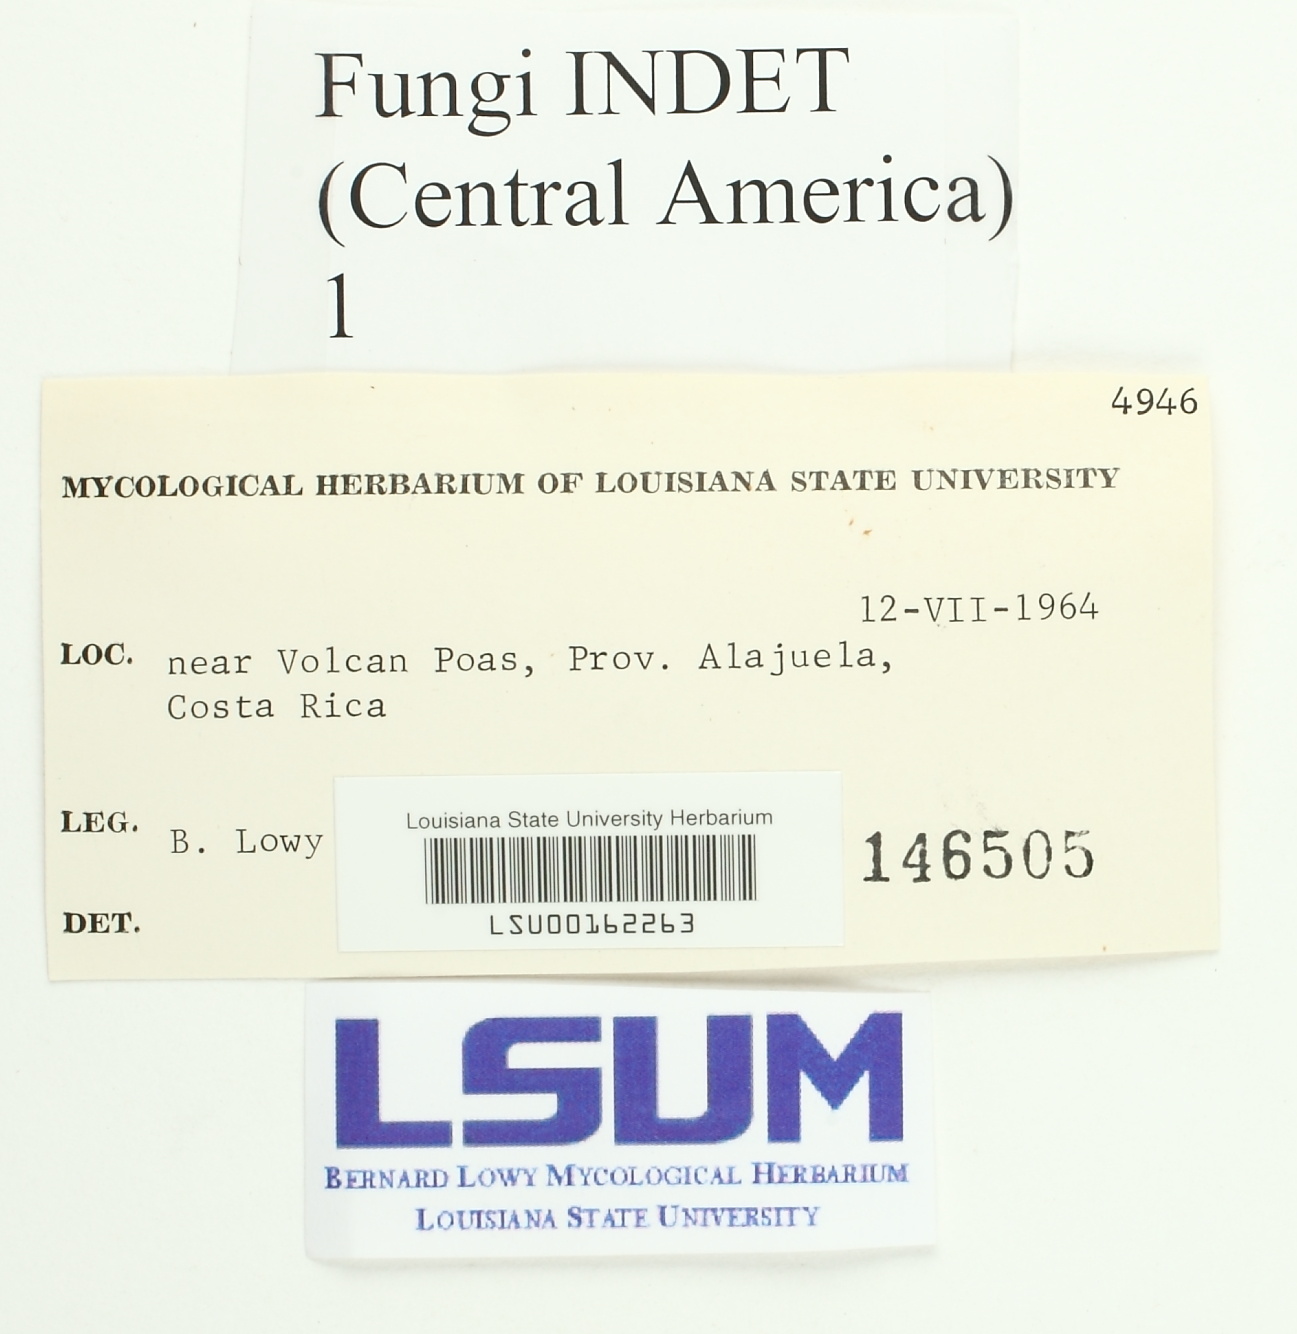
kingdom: Fungi
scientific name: Fungi
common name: Fungi
